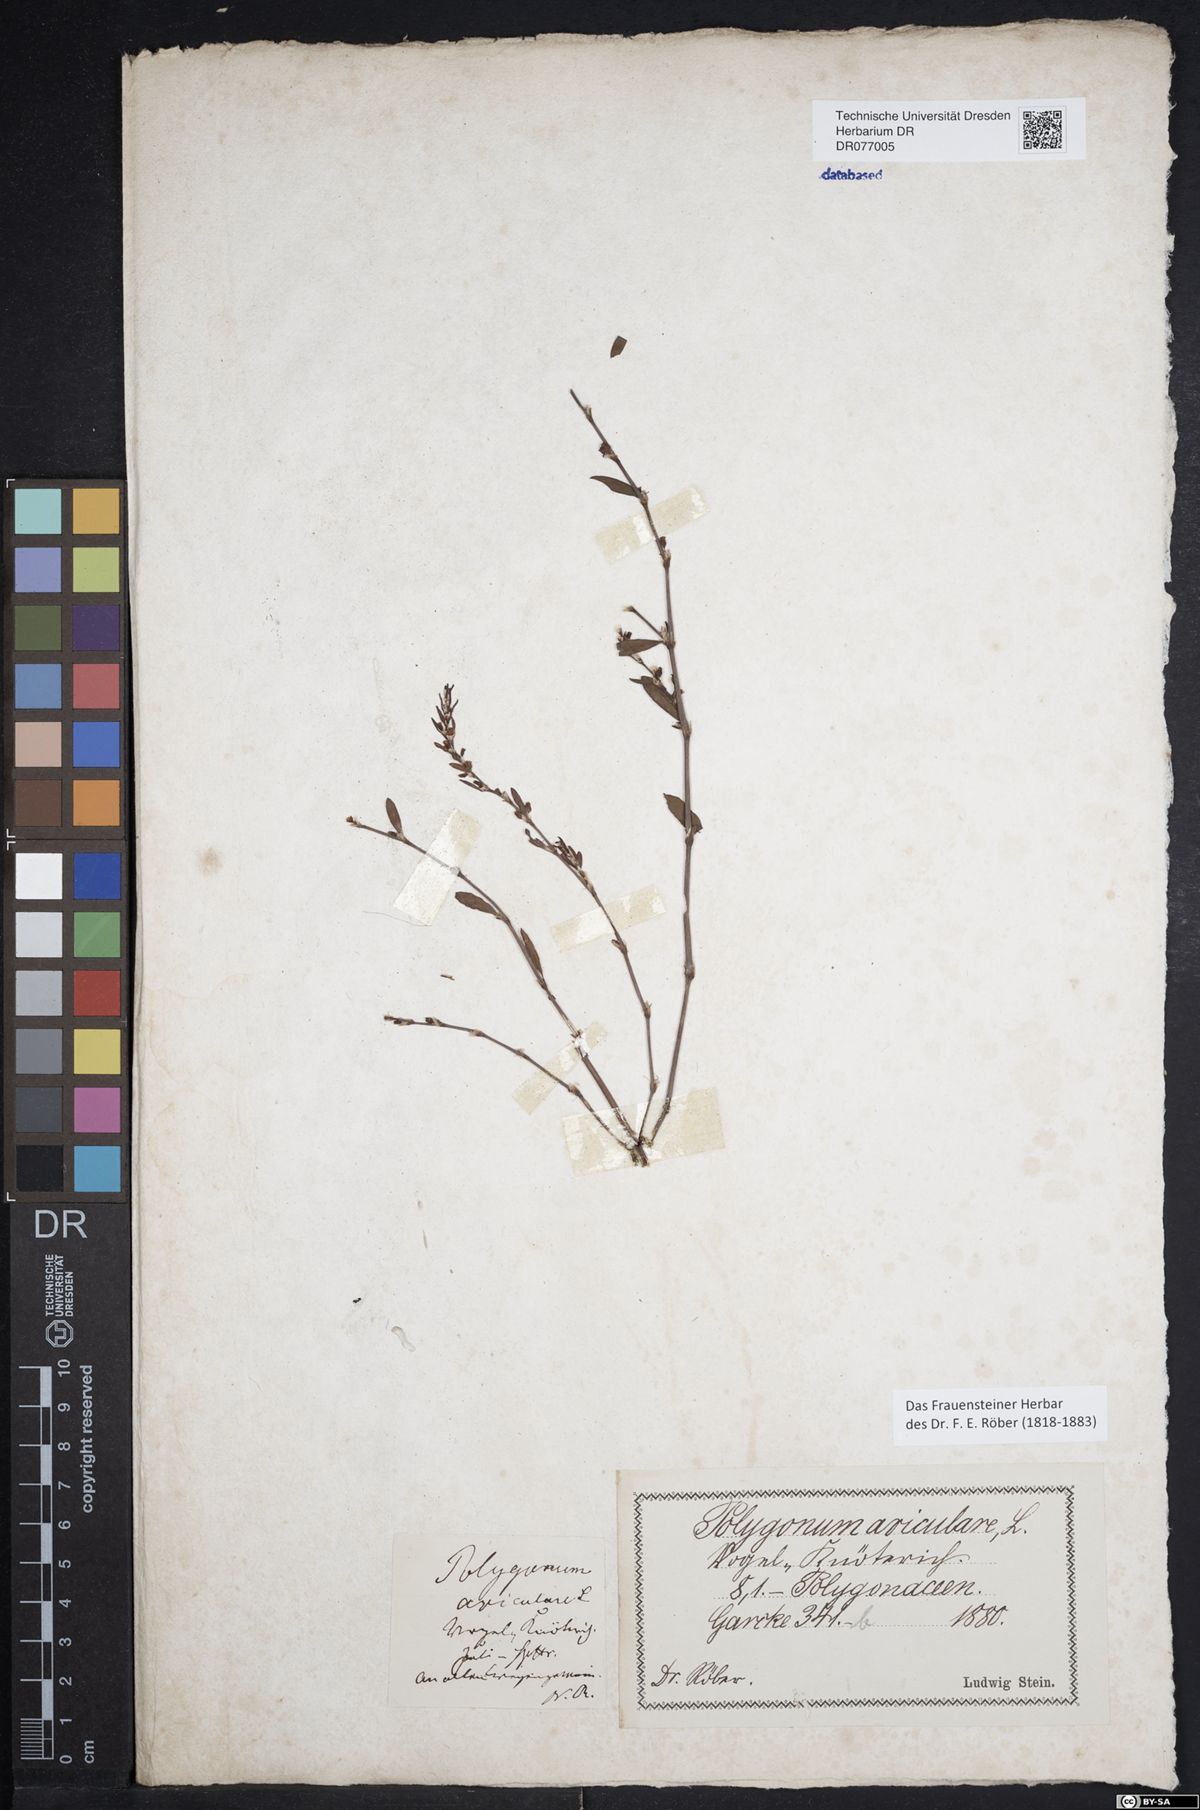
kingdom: Plantae
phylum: Tracheophyta
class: Magnoliopsida
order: Caryophyllales
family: Polygonaceae
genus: Polygonum
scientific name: Polygonum aviculare
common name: Prostrate knotweed
